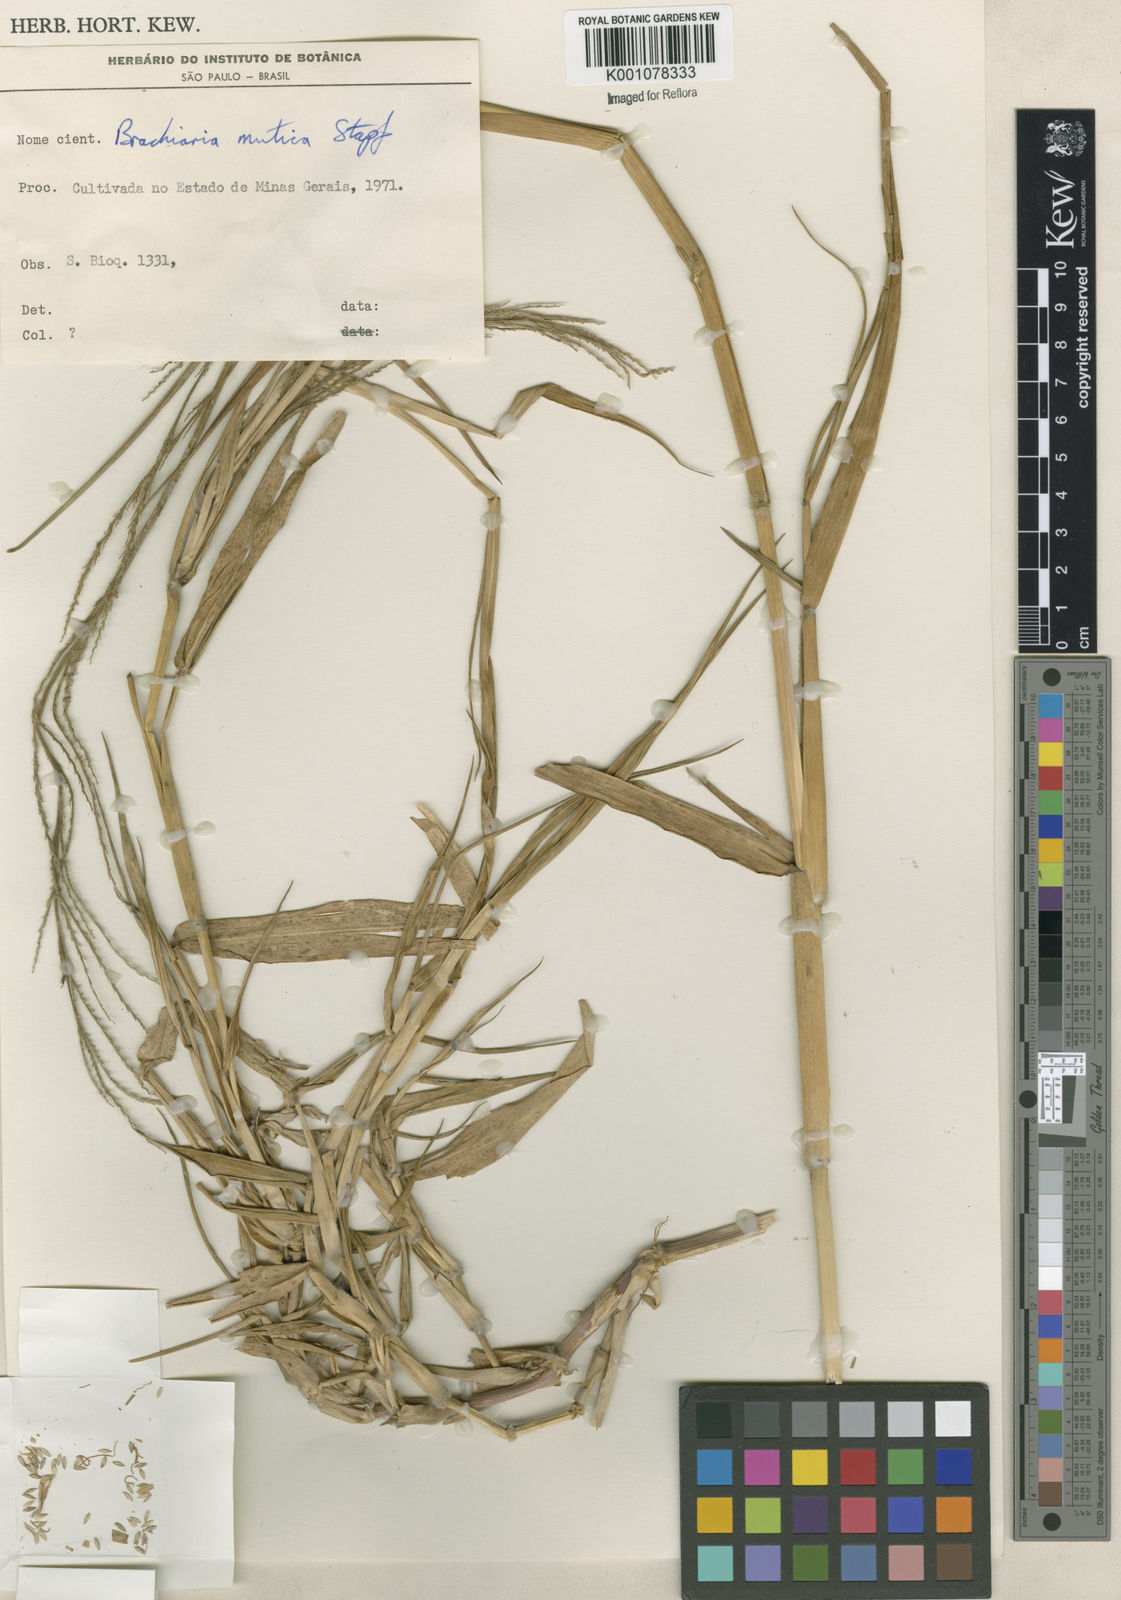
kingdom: Plantae
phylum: Tracheophyta
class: Liliopsida
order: Poales
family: Poaceae
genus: Urochloa
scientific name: Urochloa polystachya
